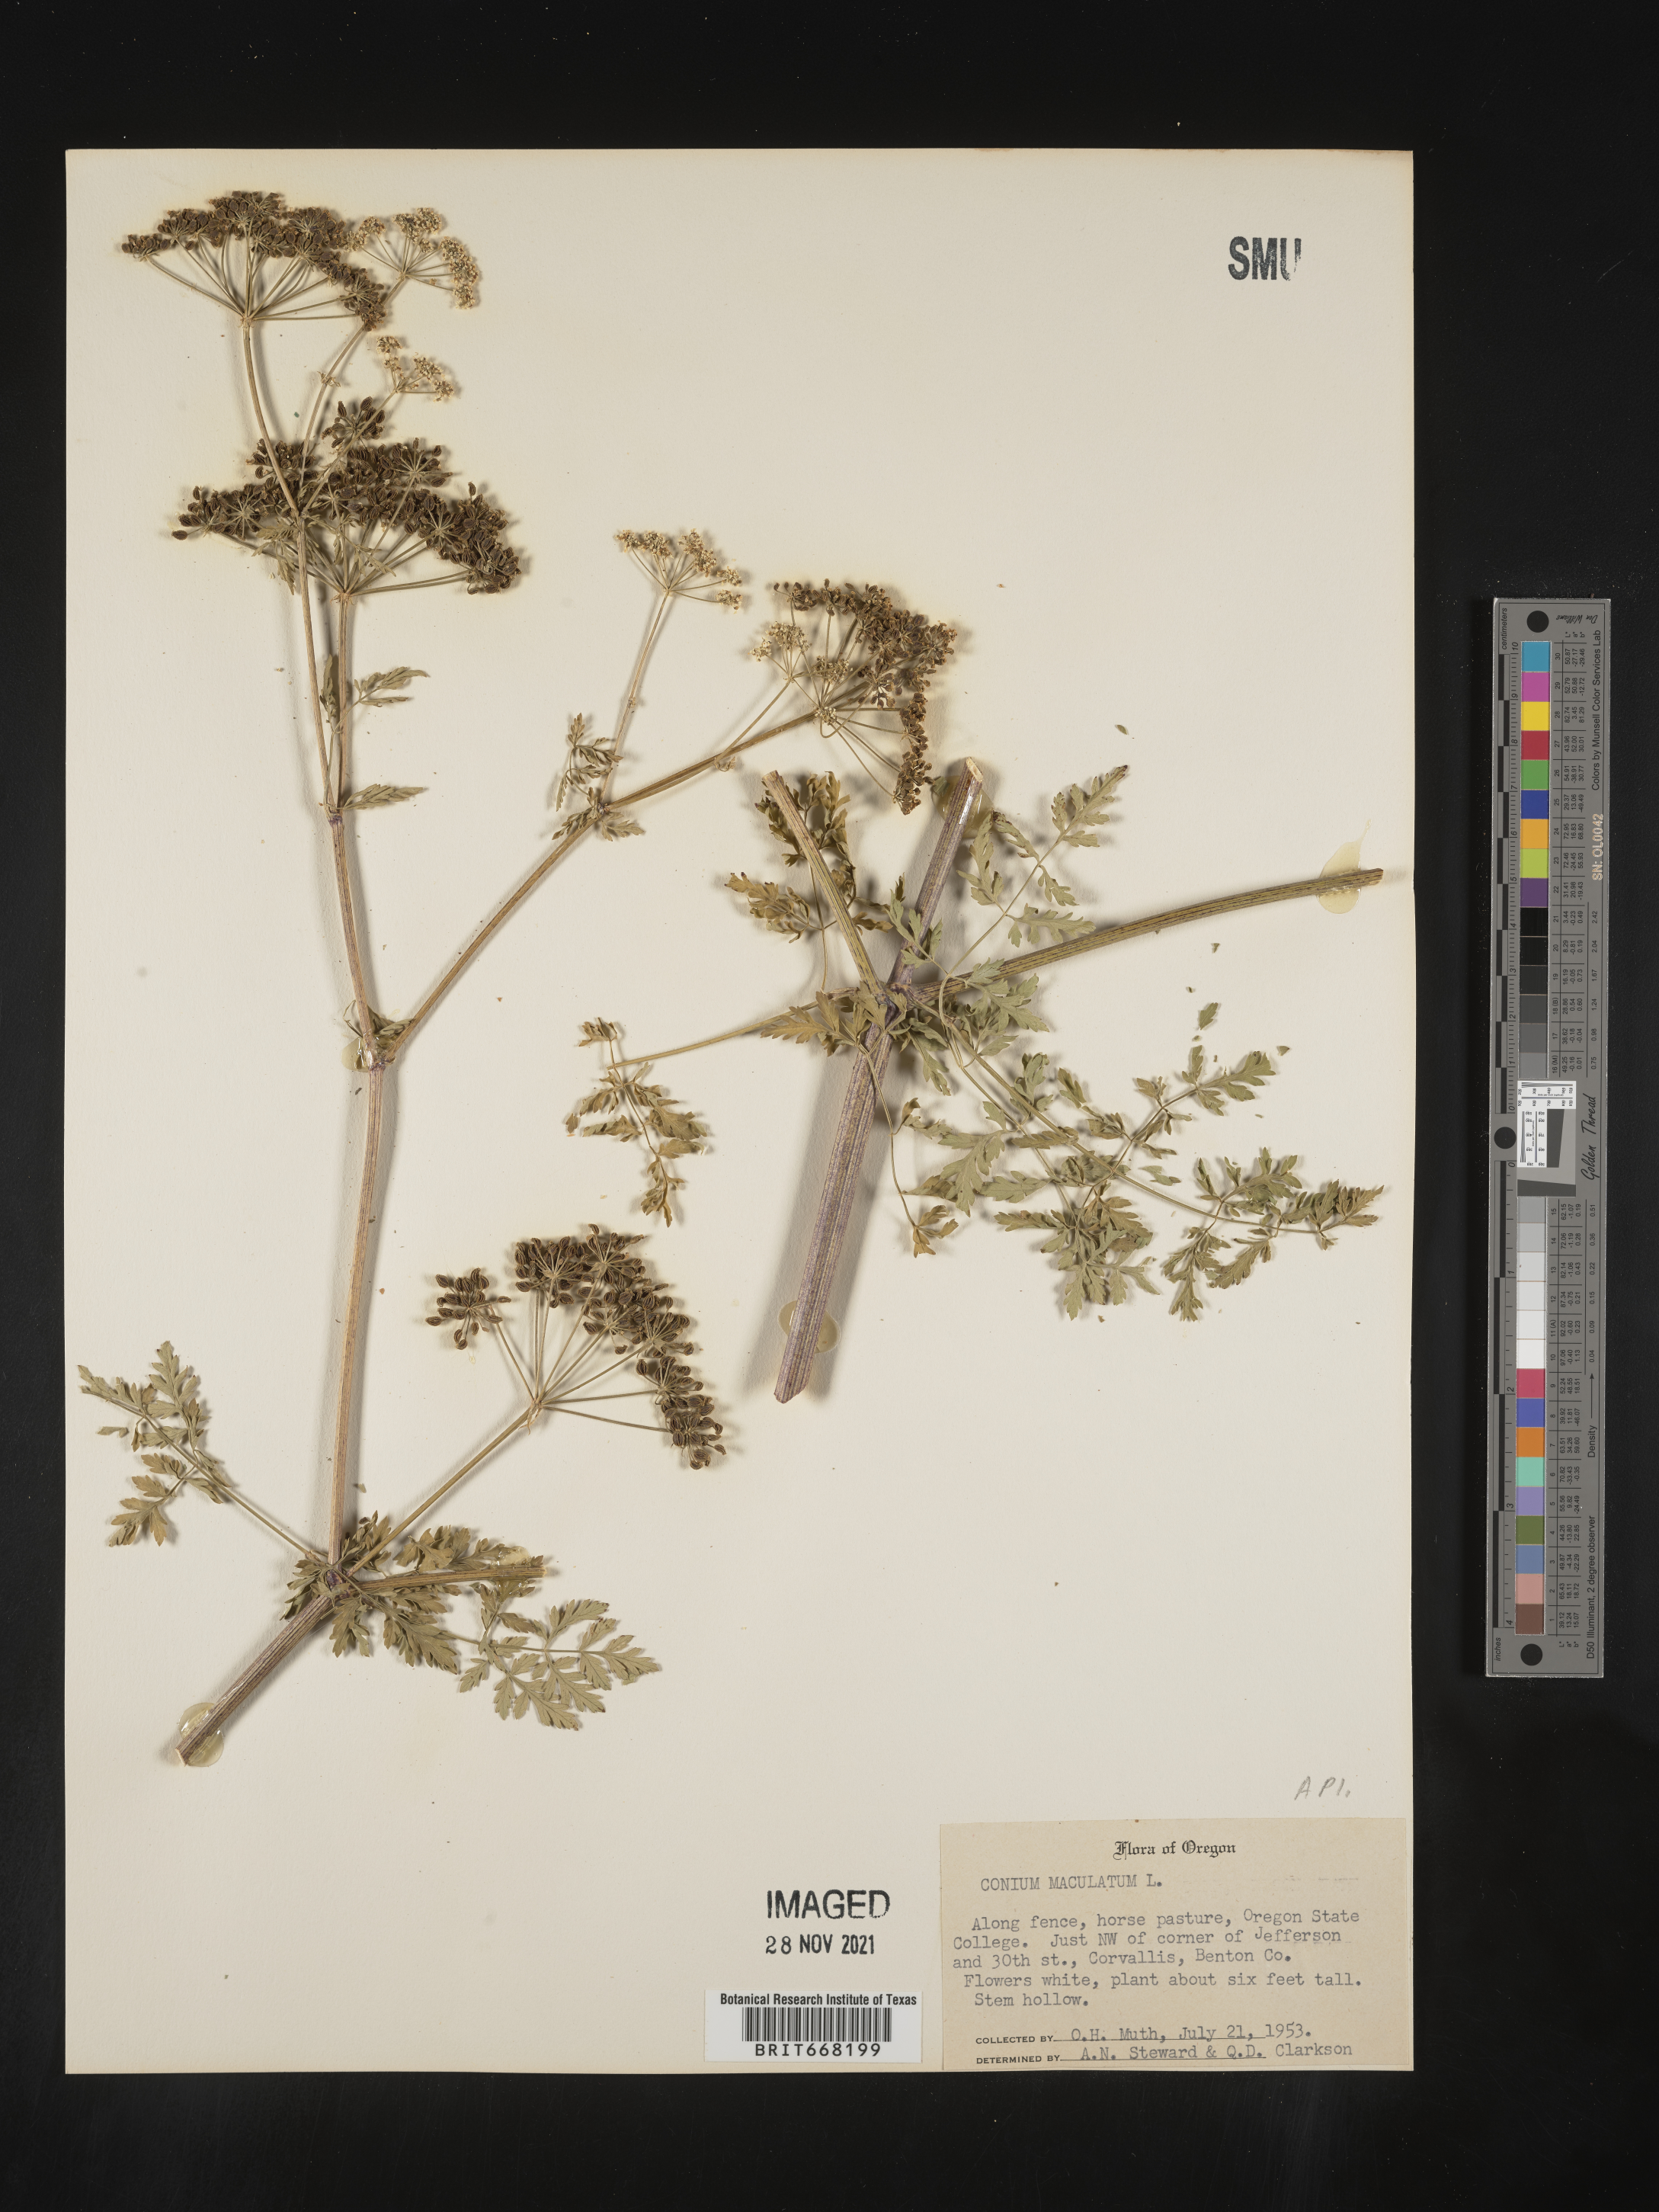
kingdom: Plantae
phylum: Tracheophyta
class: Magnoliopsida
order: Apiales
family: Apiaceae
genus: Conium
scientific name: Conium maculatum
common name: Hemlock
